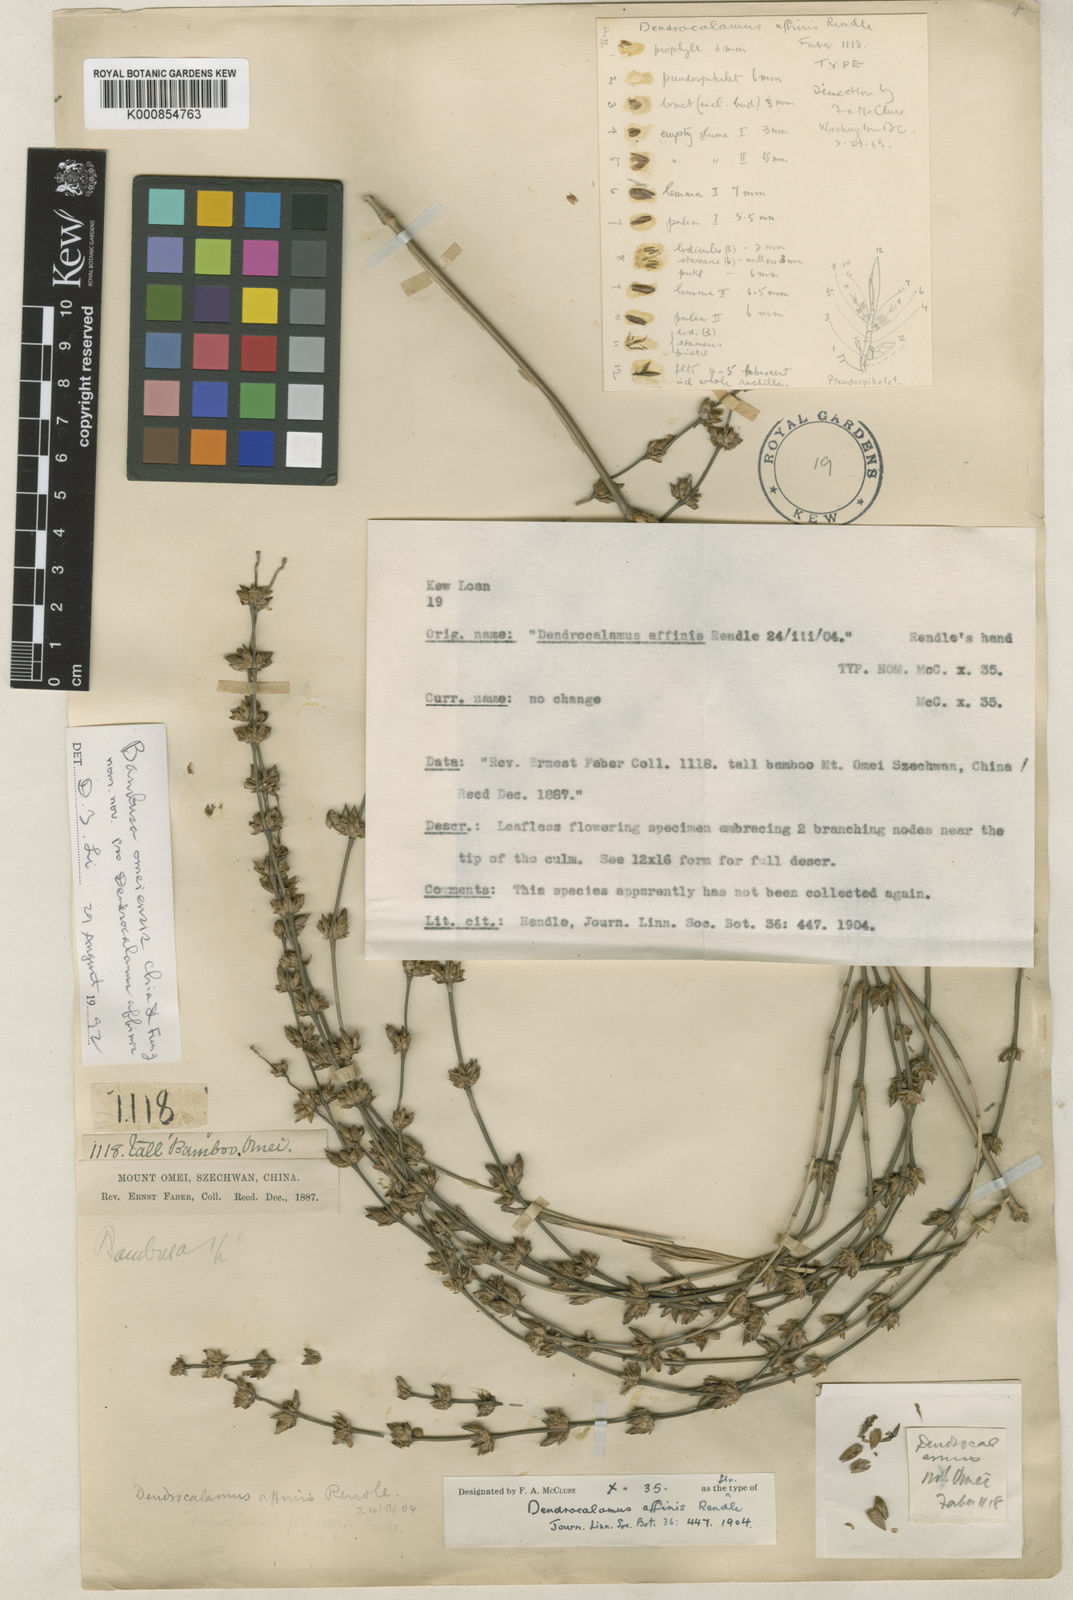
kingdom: Plantae
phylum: Tracheophyta
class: Liliopsida
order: Poales
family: Poaceae
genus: Bambusa
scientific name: Bambusa emeiensis
